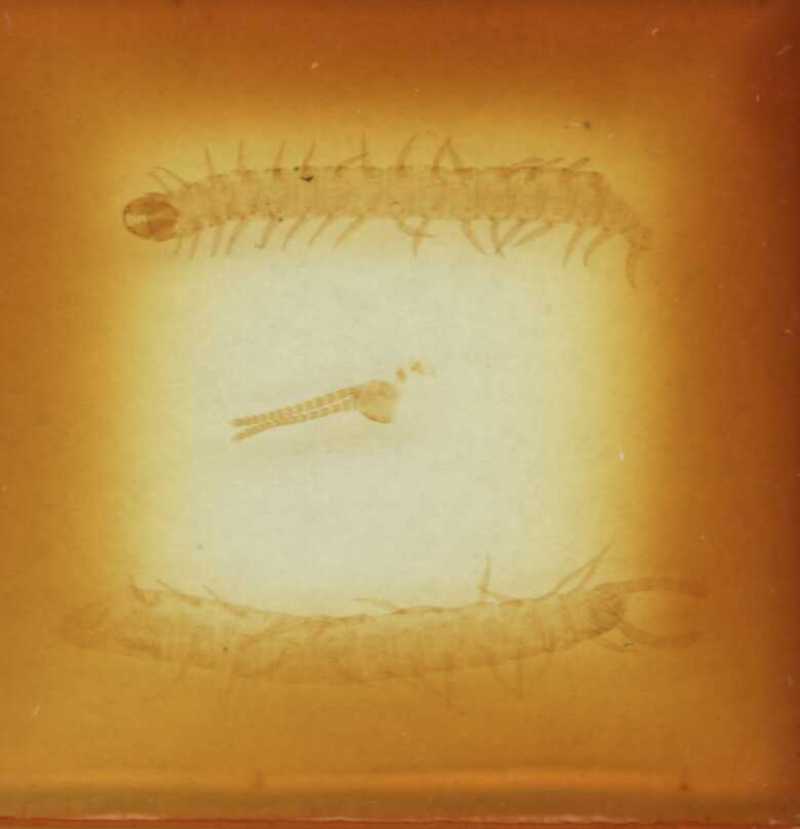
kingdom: Animalia
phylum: Arthropoda
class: Chilopoda
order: Geophilomorpha
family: Geophilidae
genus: Geoperingueyia
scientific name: Geoperingueyia armata
